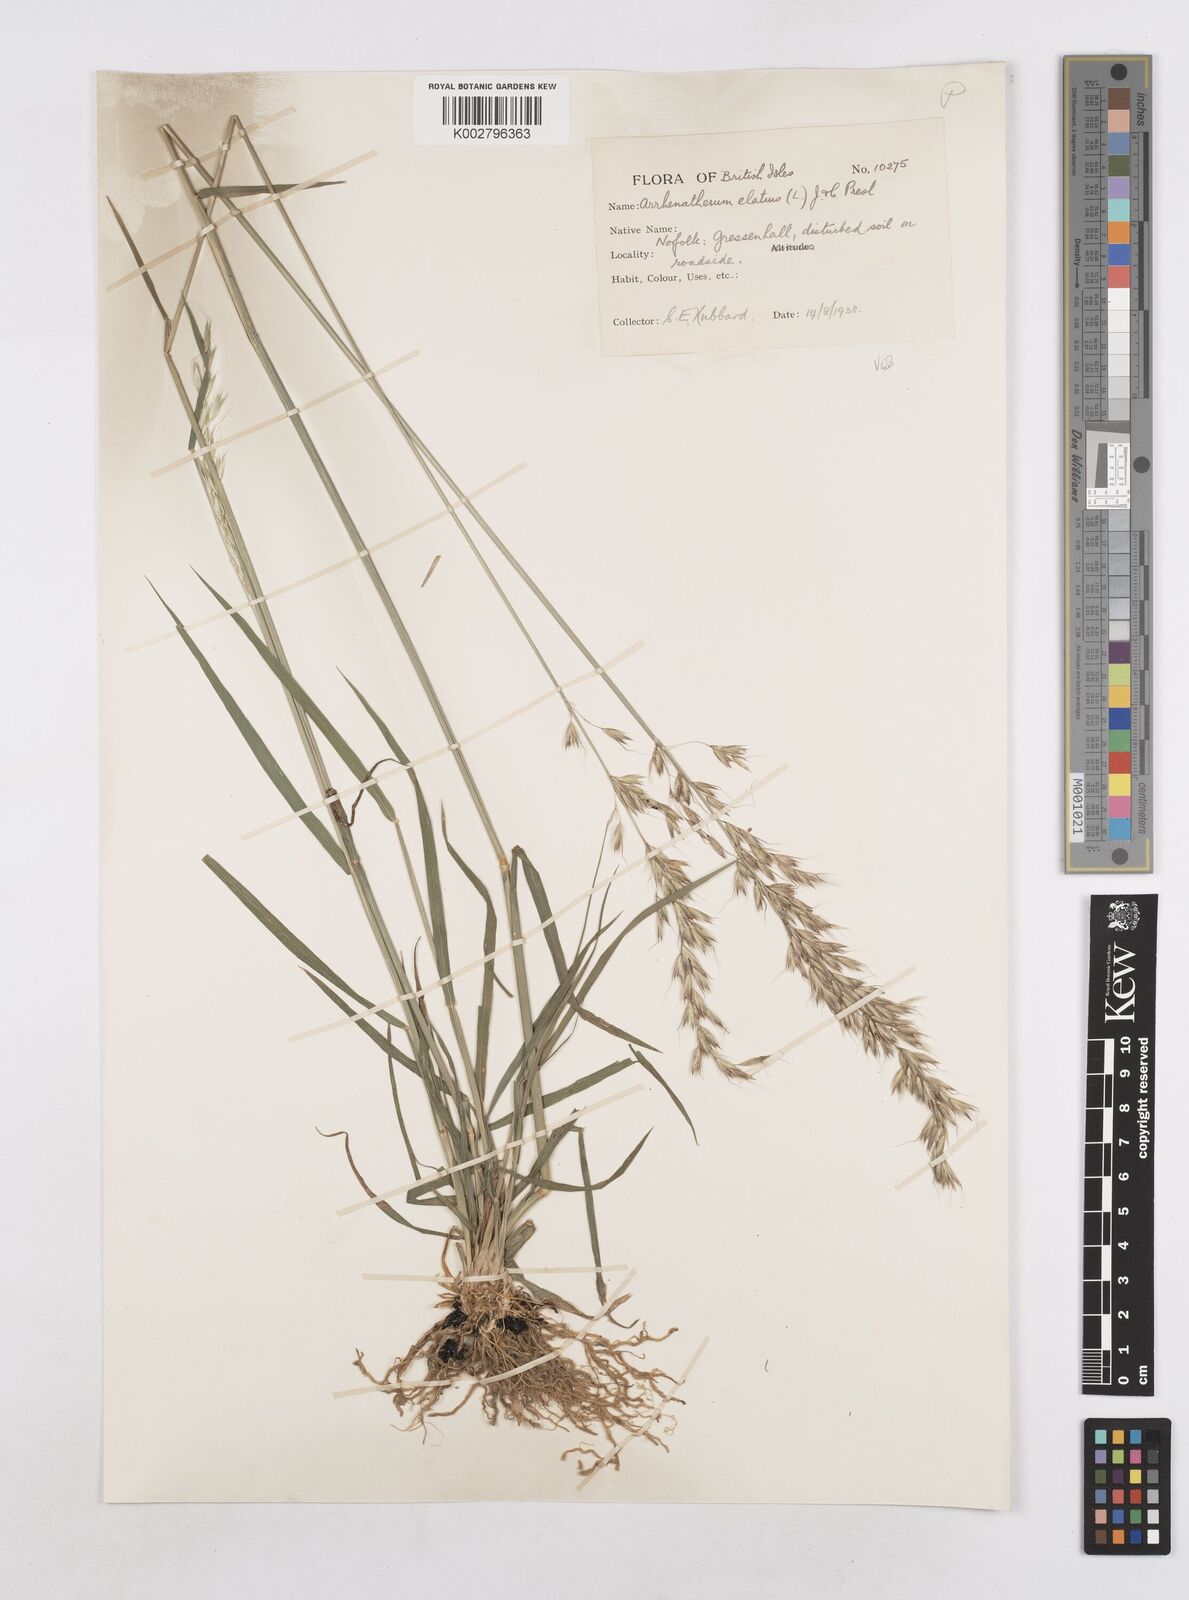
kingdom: Plantae
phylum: Tracheophyta
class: Liliopsida
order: Poales
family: Poaceae
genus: Arrhenatherum
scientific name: Arrhenatherum elatius
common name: Tall oatgrass
